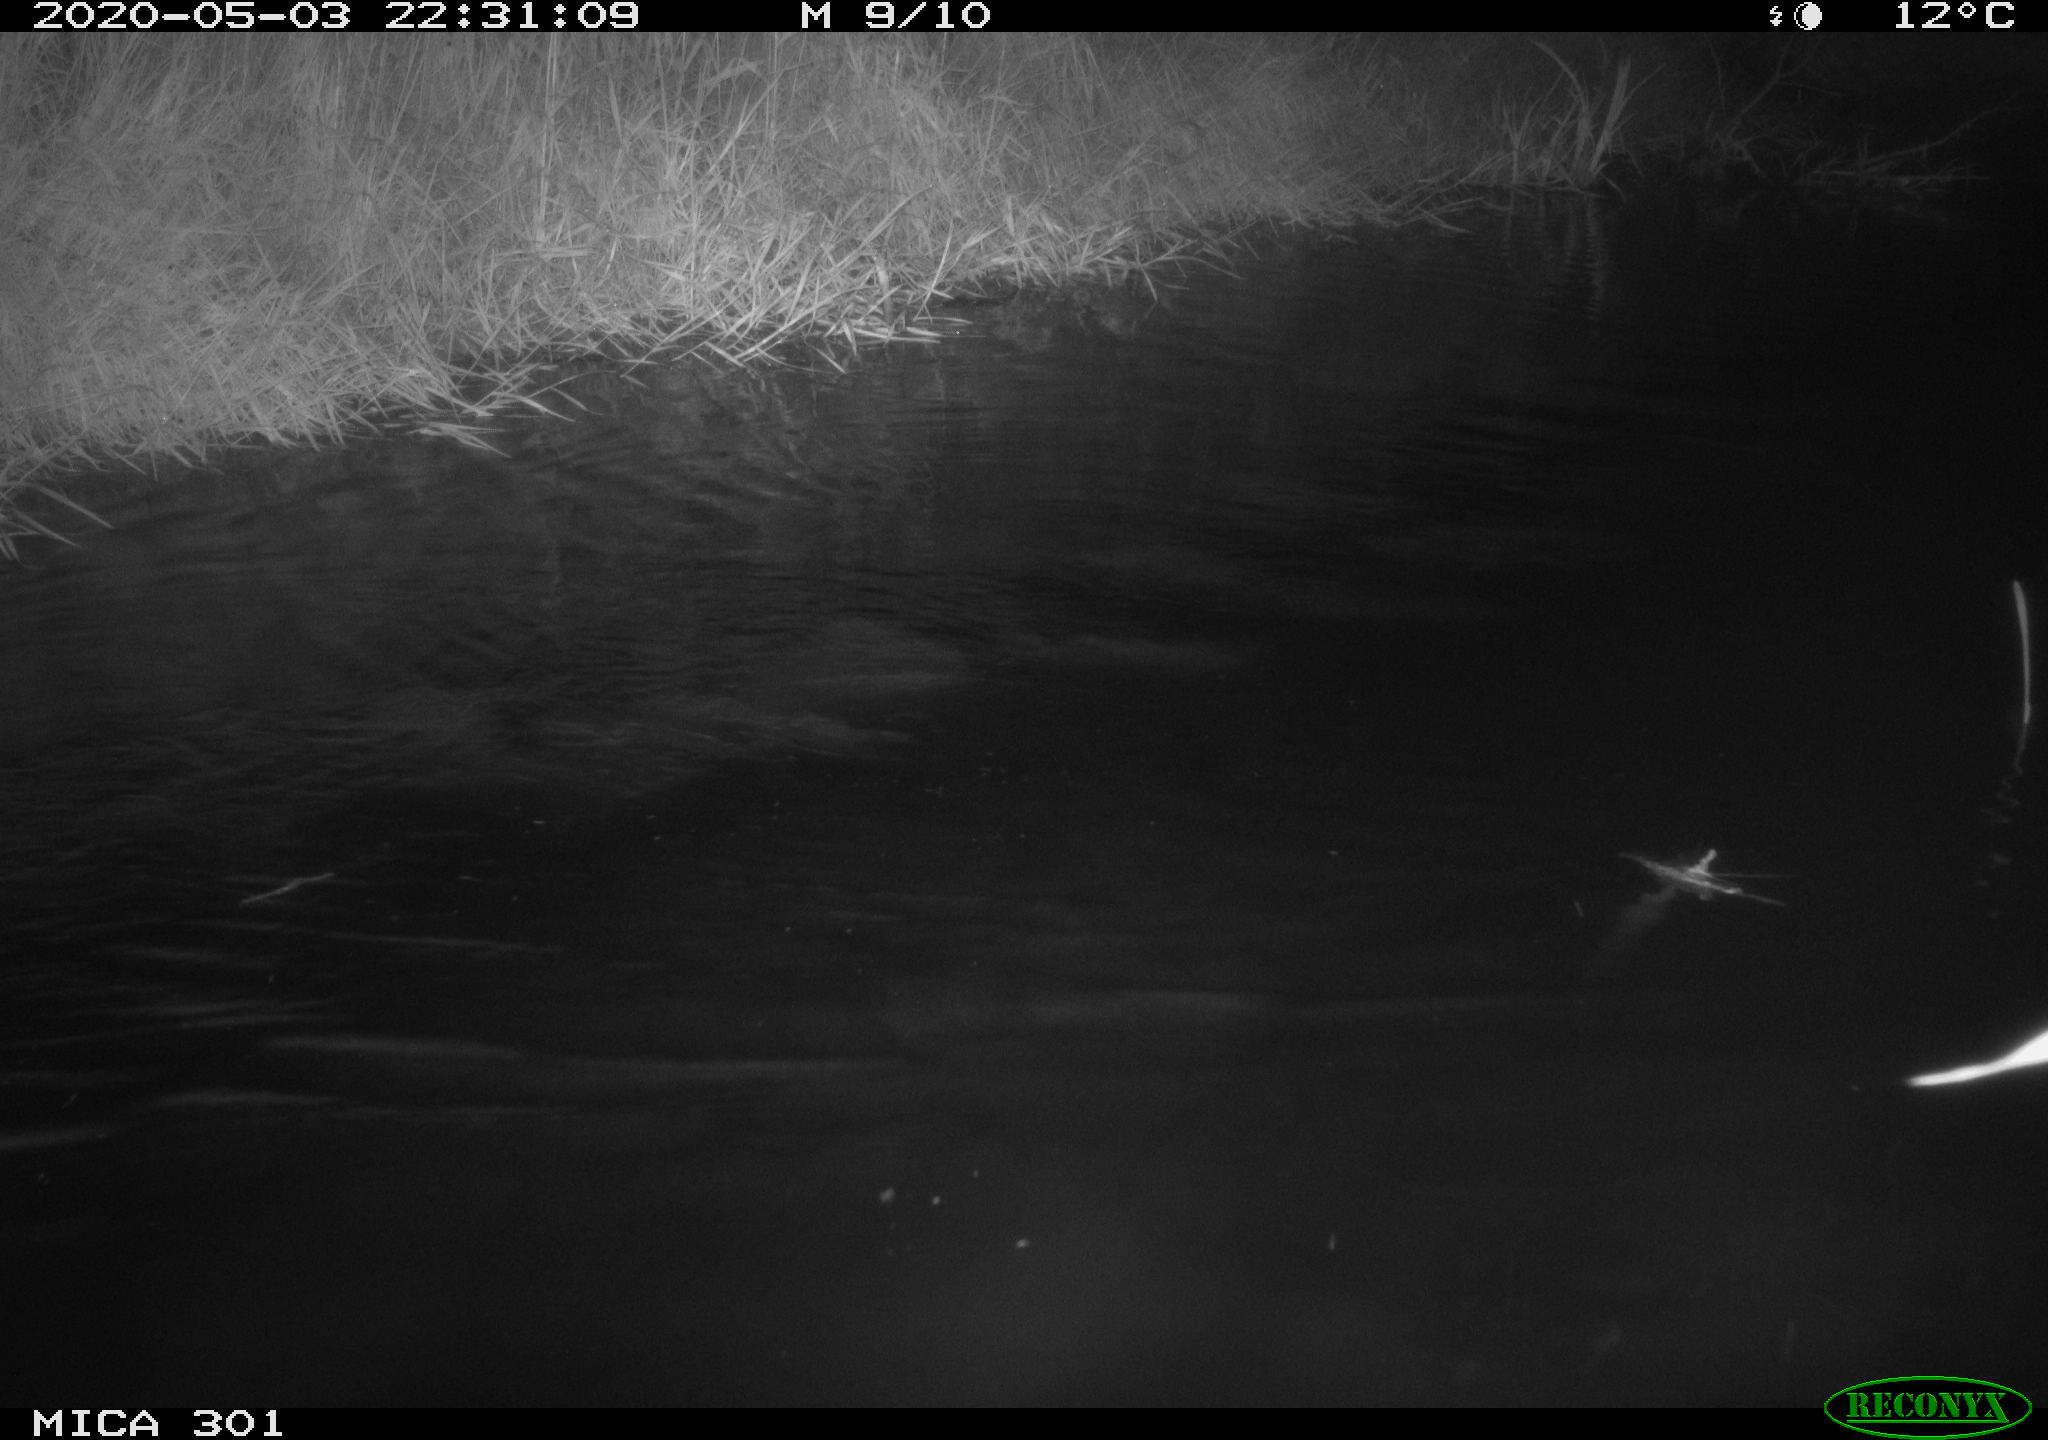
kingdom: Animalia
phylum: Chordata
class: Mammalia
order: Rodentia
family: Castoridae
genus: Castor
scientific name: Castor fiber
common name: Eurasian beaver
